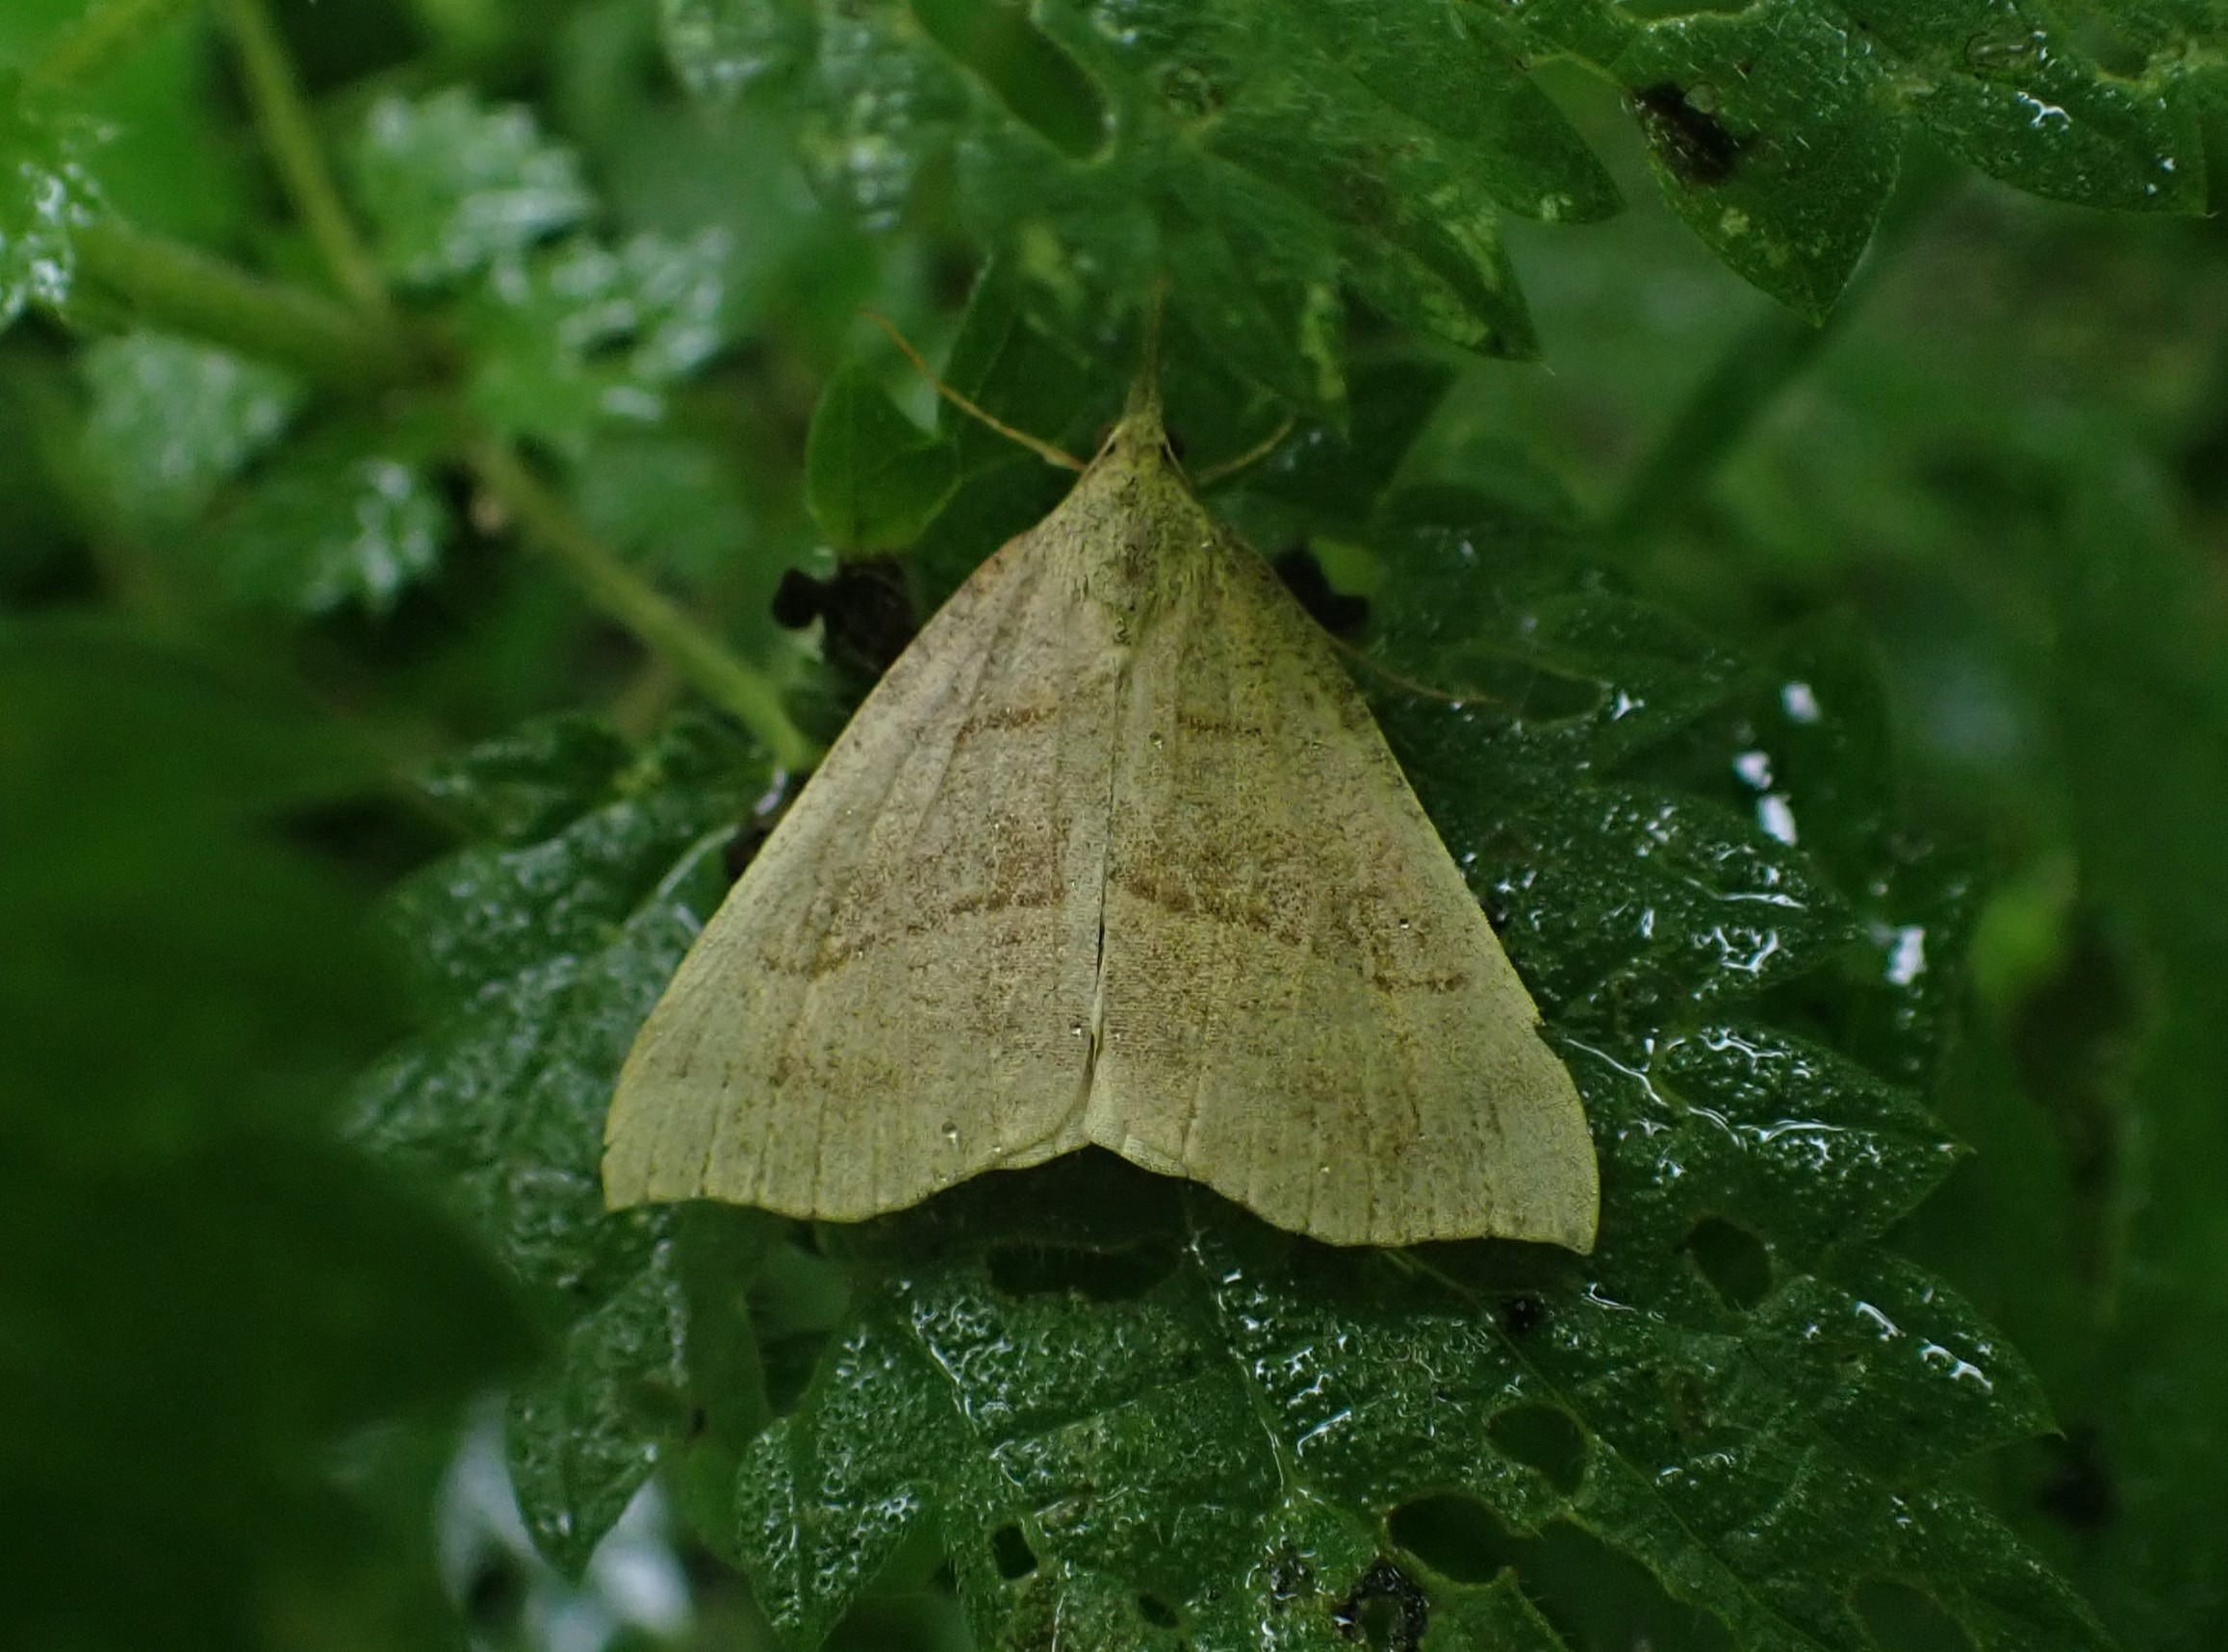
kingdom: Animalia
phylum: Arthropoda
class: Insecta
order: Lepidoptera
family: Erebidae
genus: Hypena
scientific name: Hypena proboscidalis
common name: Snudeugle
